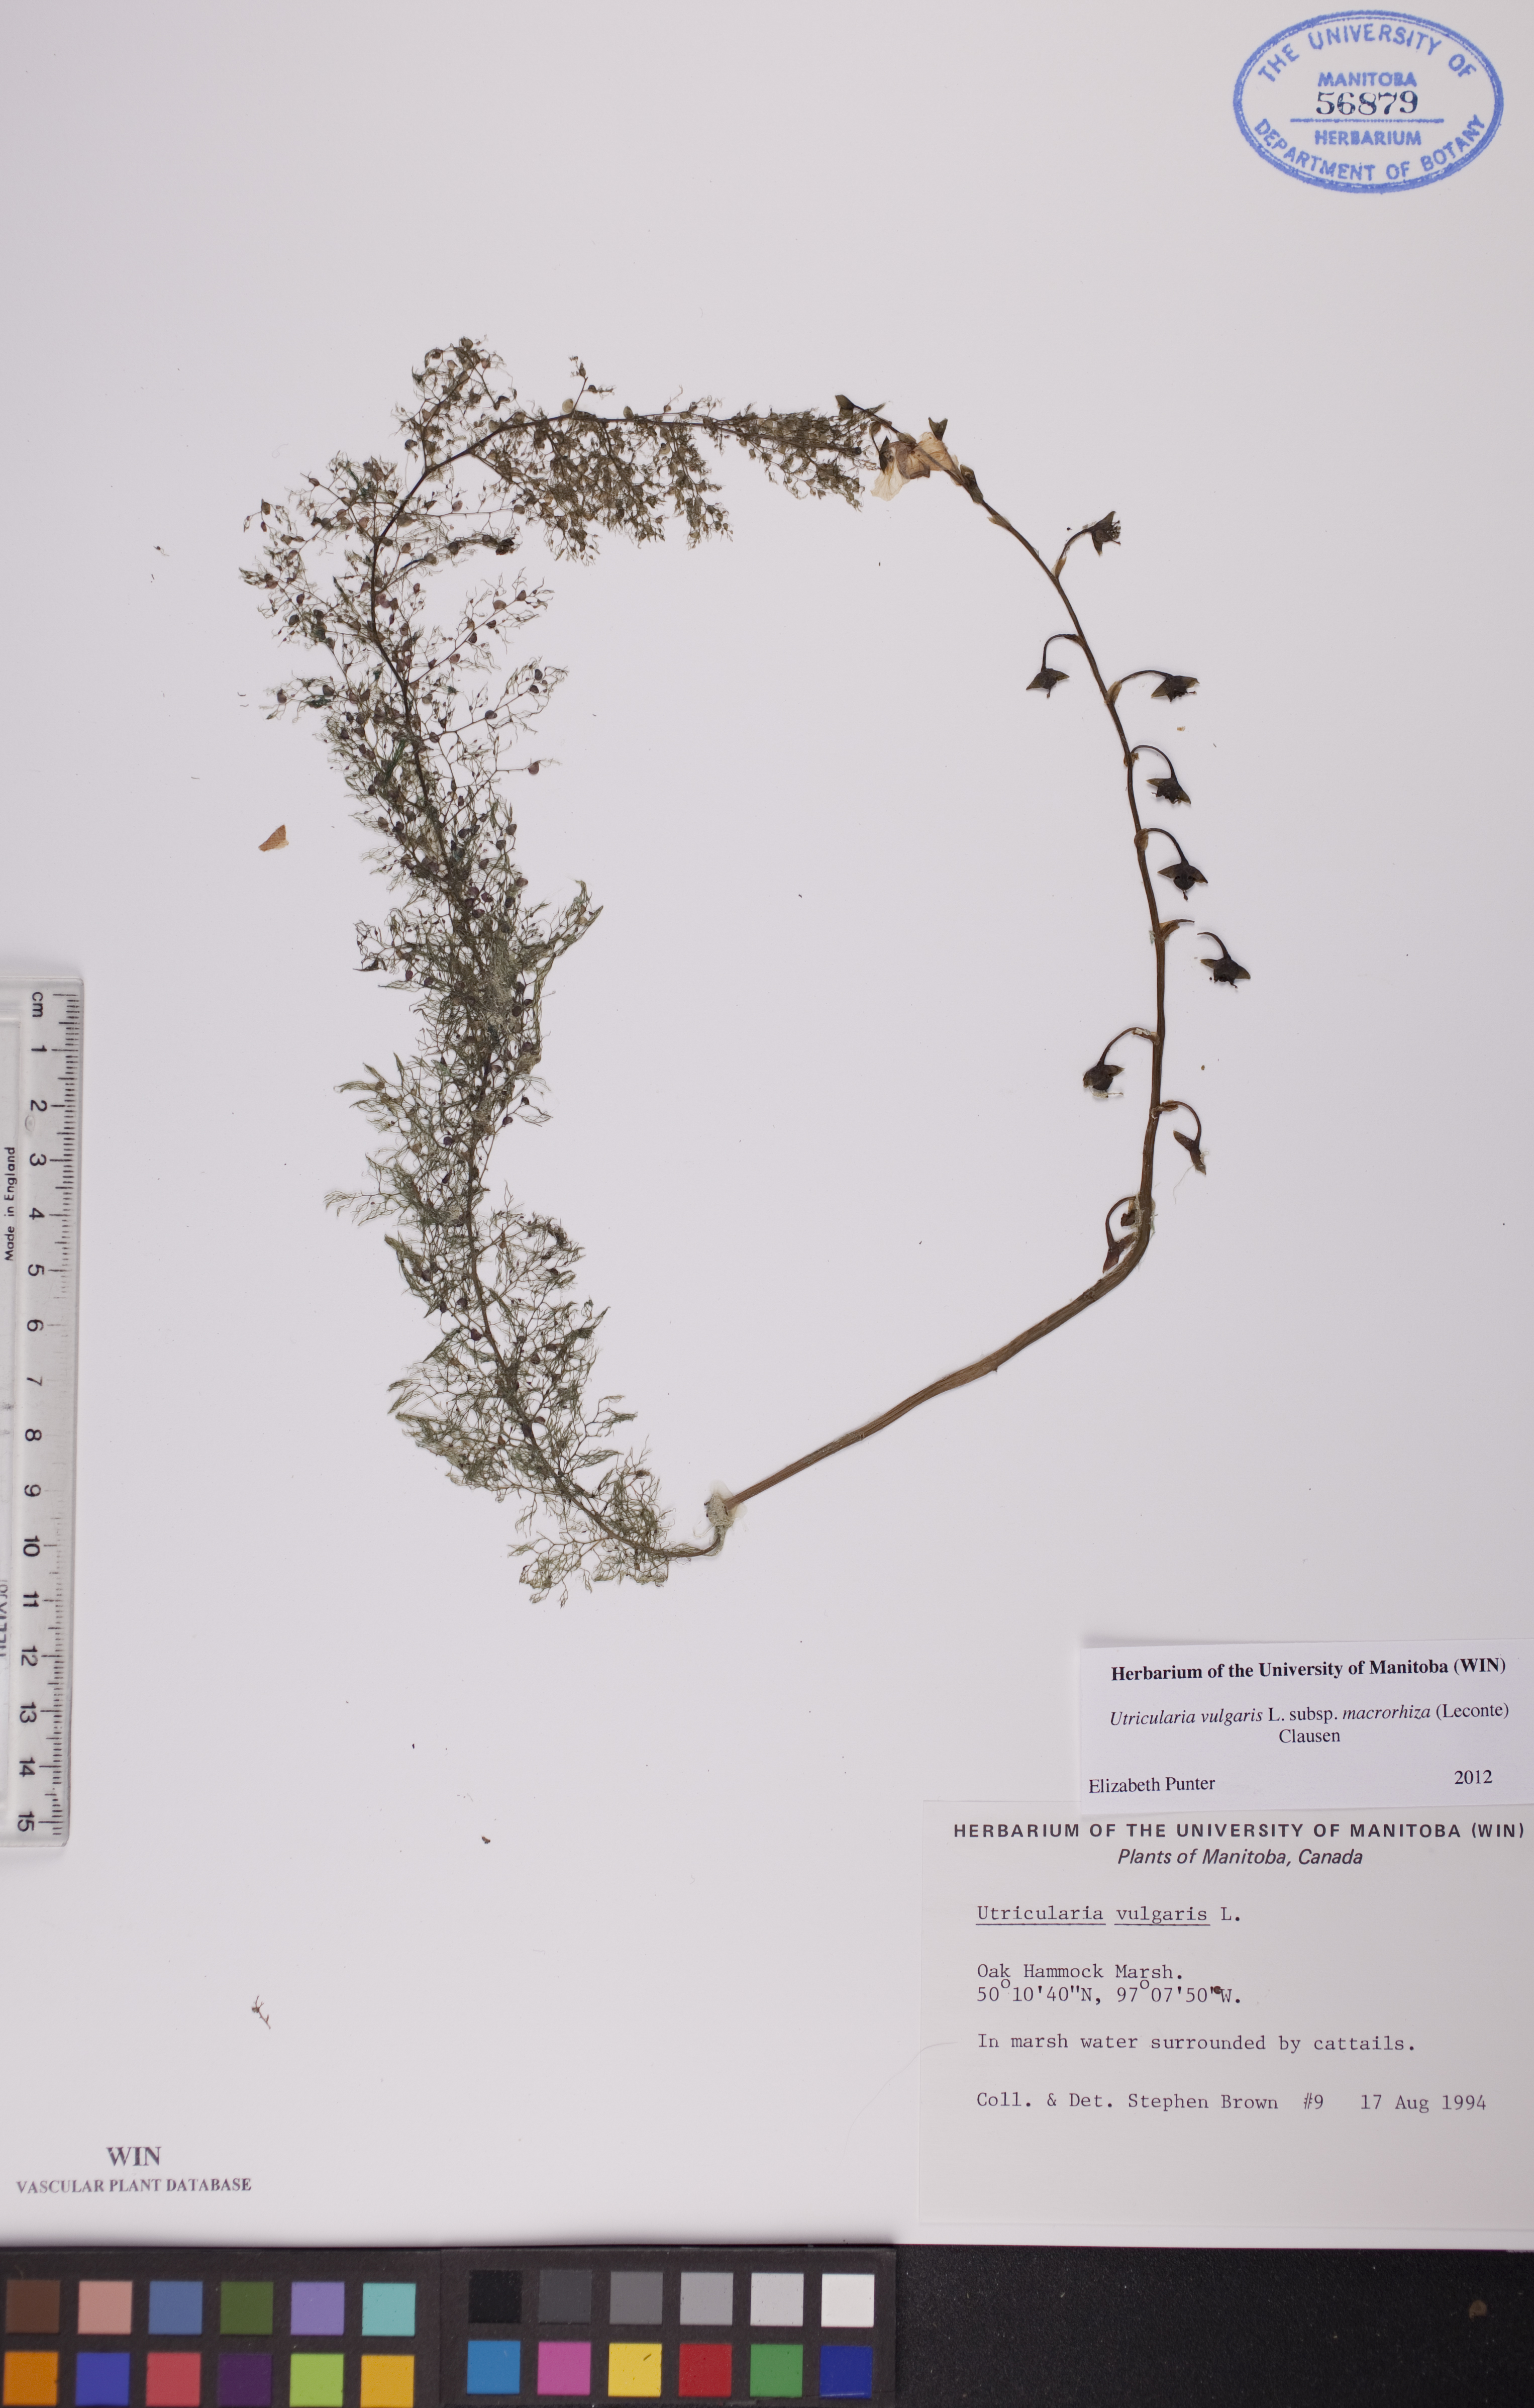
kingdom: Plantae
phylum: Tracheophyta
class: Magnoliopsida
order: Lamiales
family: Lentibulariaceae
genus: Utricularia
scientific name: Utricularia macrorhiza
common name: Common bladderwort
